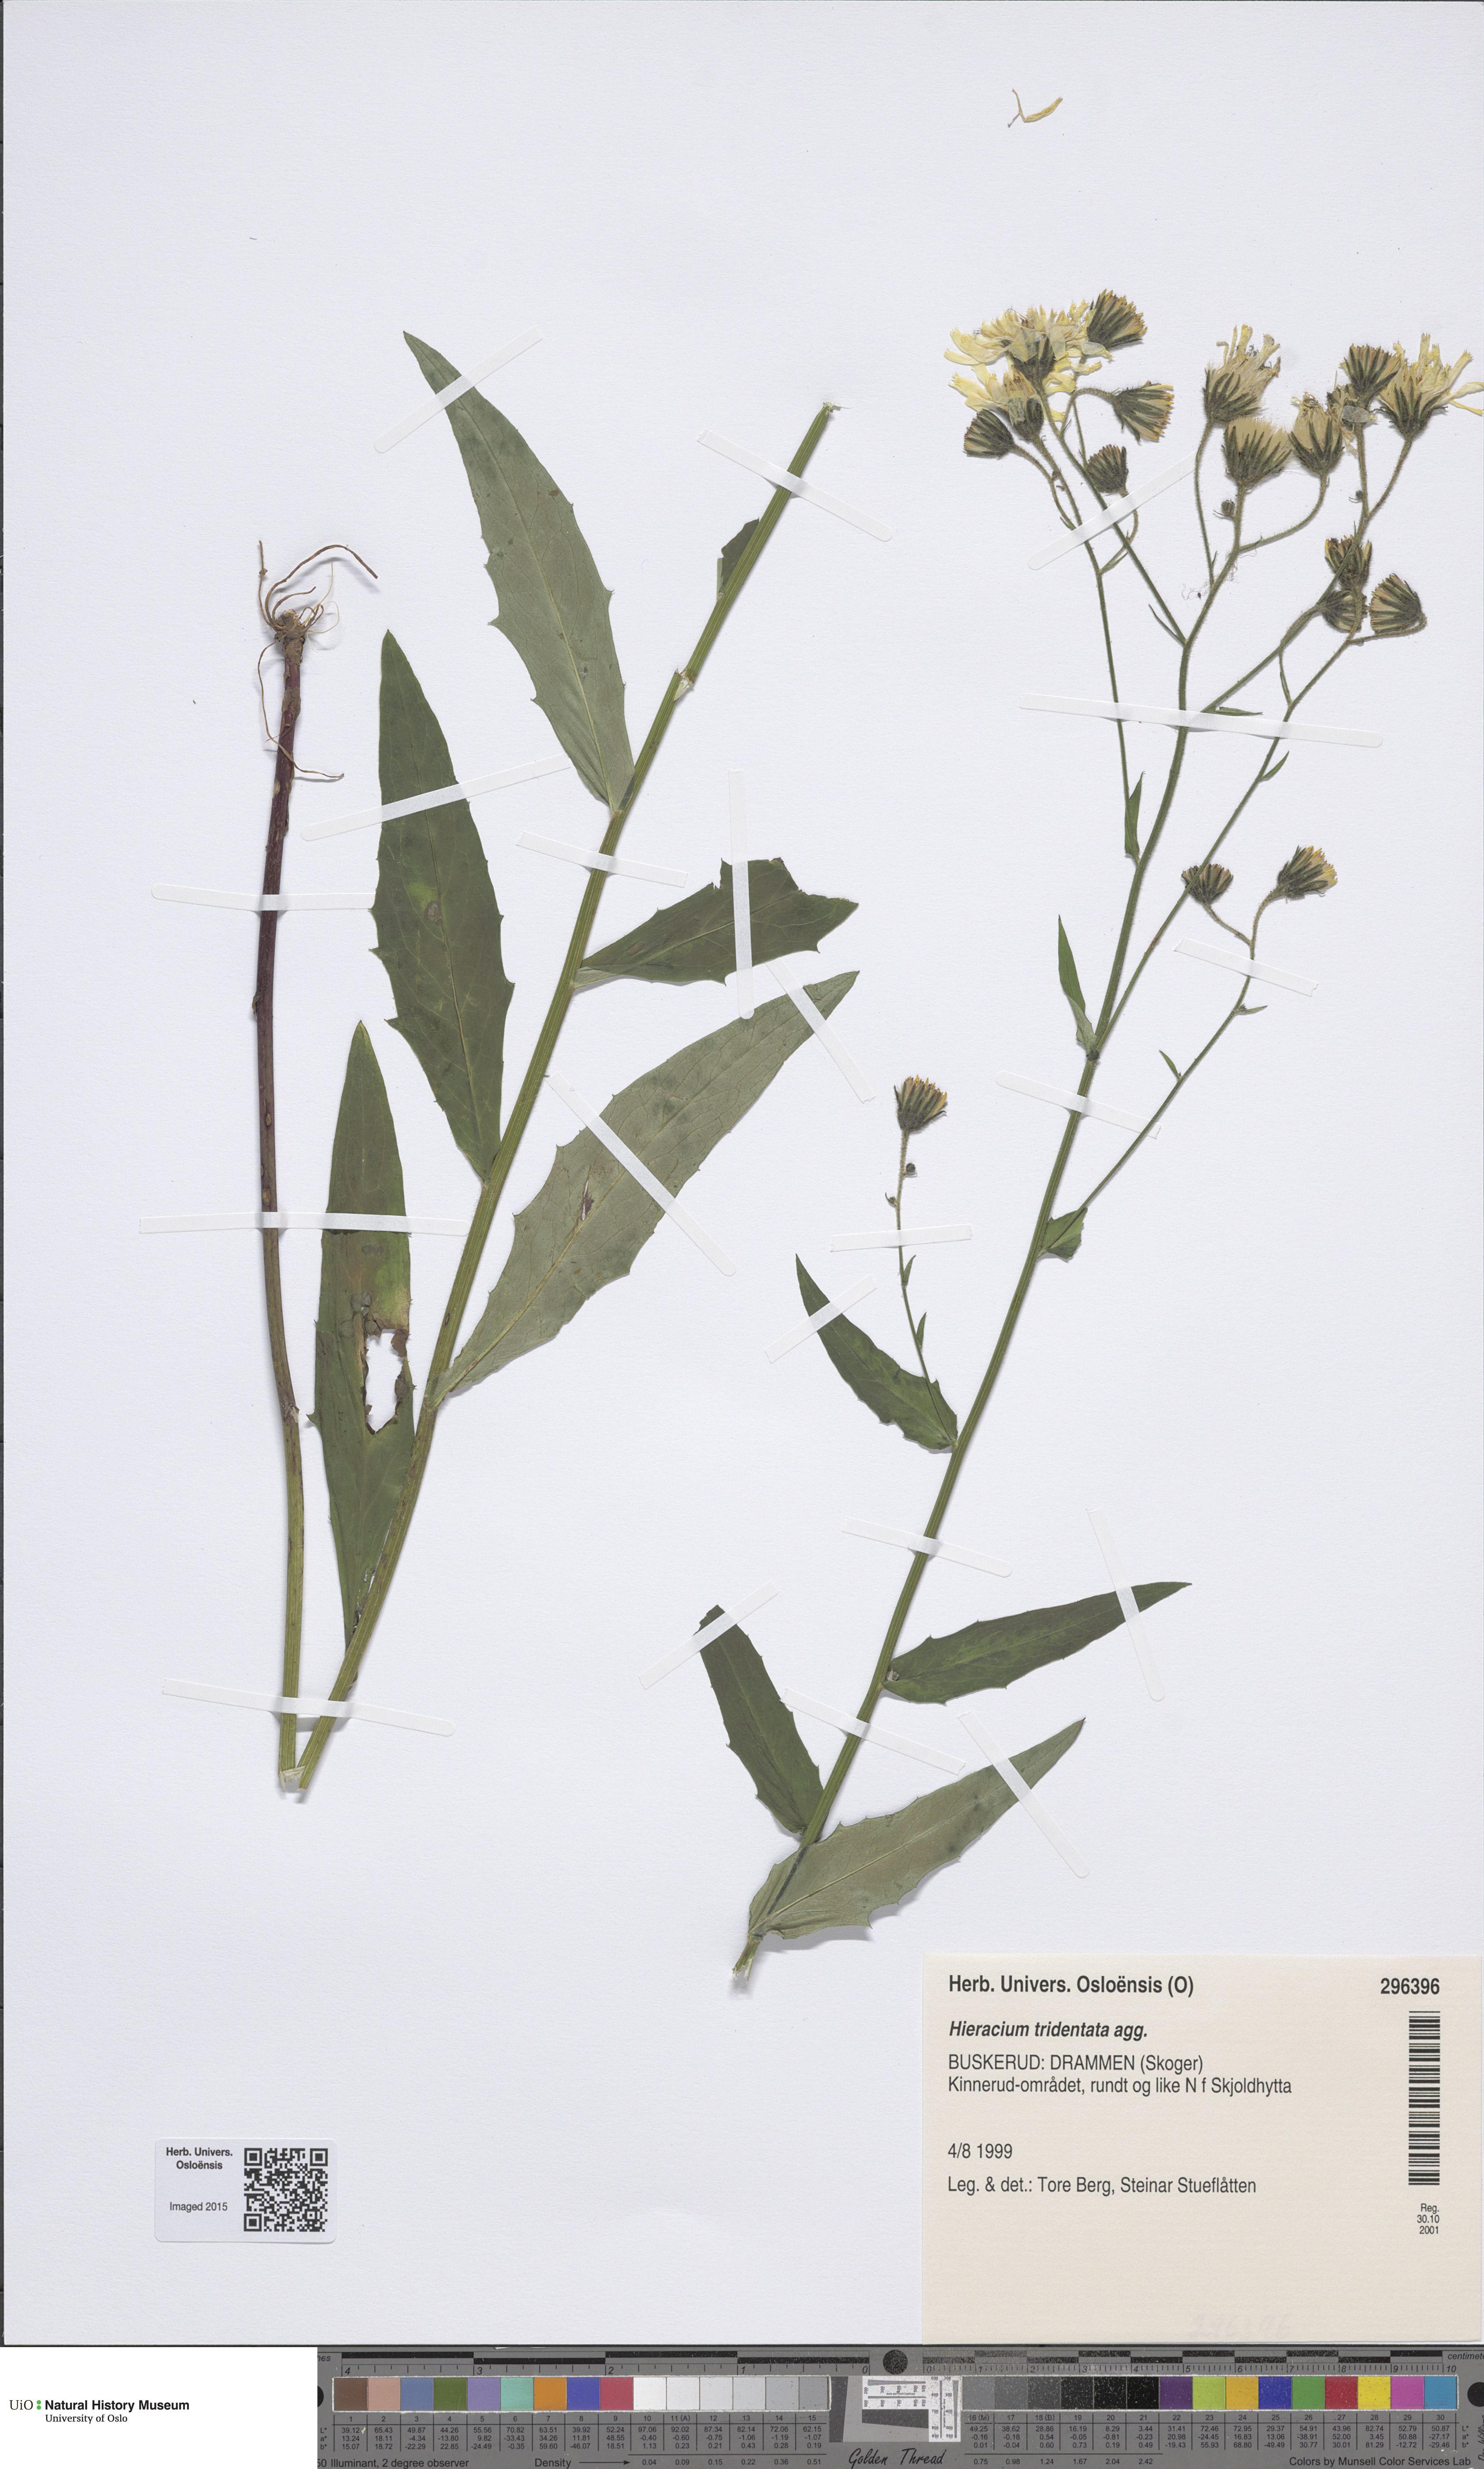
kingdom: Plantae
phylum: Tracheophyta
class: Magnoliopsida
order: Asterales
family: Asteraceae
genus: Hieracium
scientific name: Hieracium tridentatum
